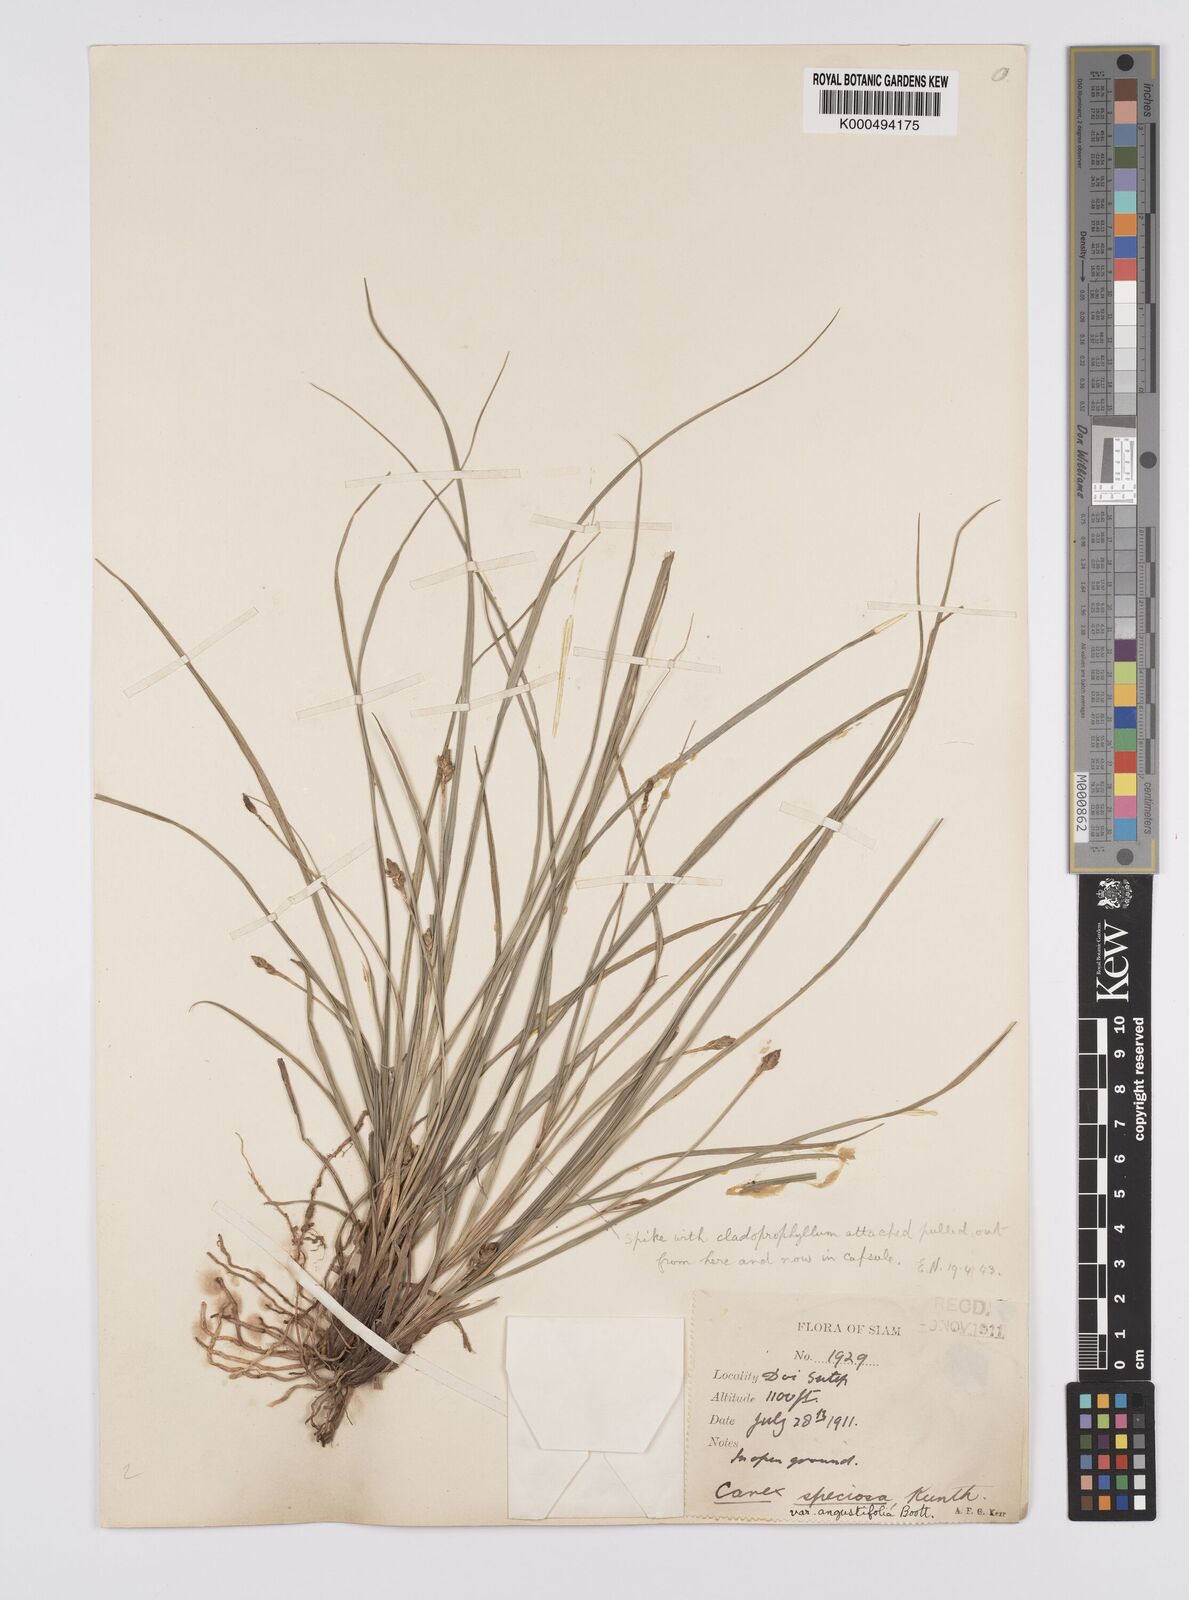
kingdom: Plantae
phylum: Tracheophyta
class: Liliopsida
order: Poales
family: Cyperaceae
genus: Carex
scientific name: Carex speciosa
